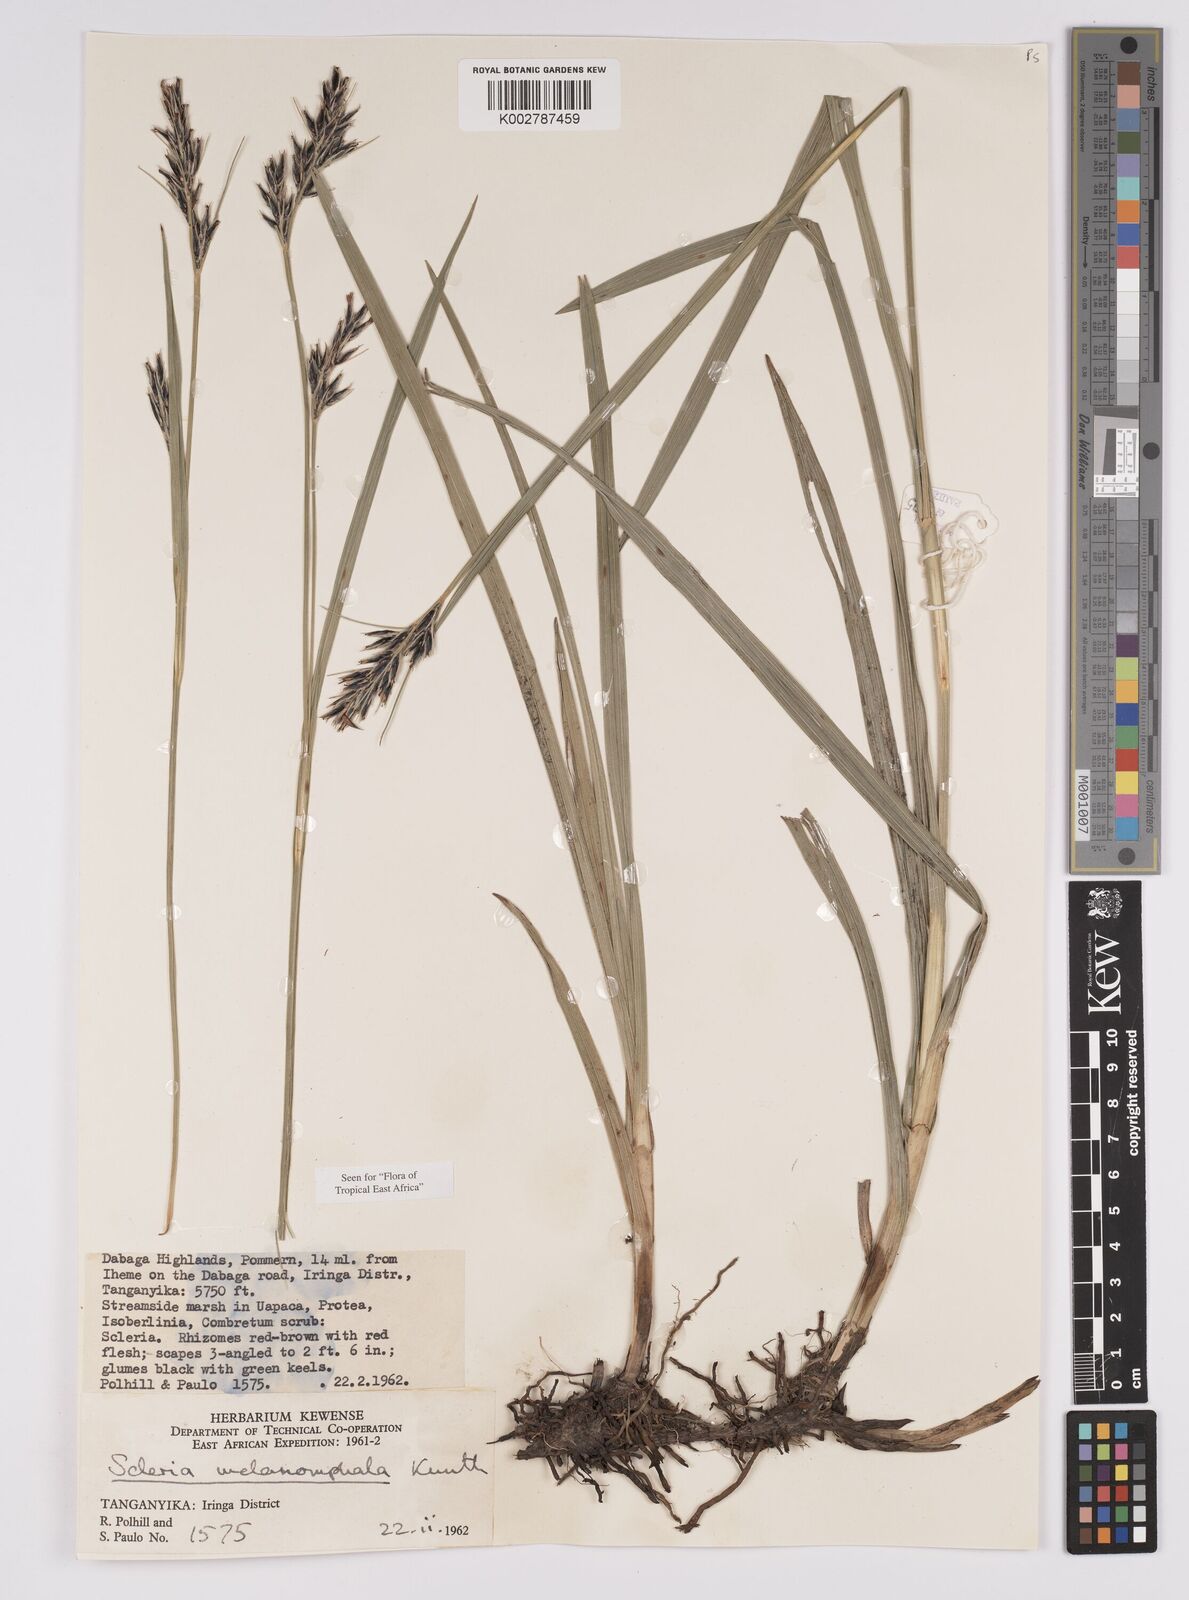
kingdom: Plantae
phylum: Tracheophyta
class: Liliopsida
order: Poales
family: Cyperaceae
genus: Scleria
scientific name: Scleria melanomphala
